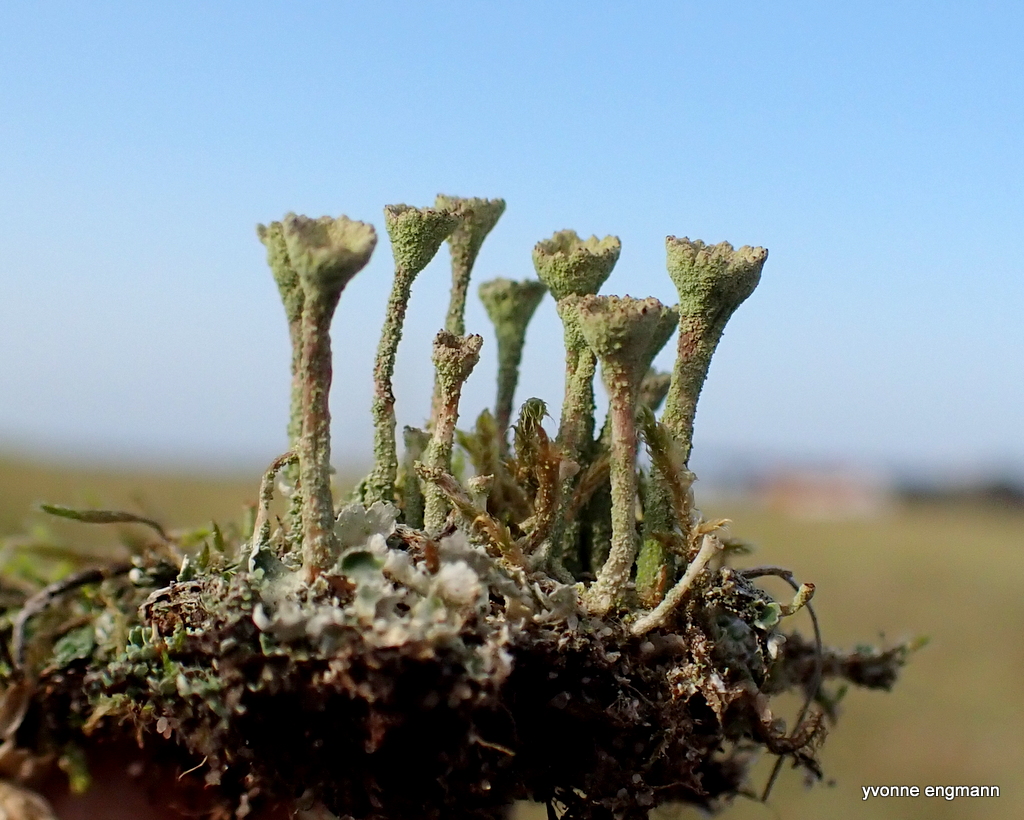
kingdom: Fungi
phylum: Ascomycota
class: Lecanoromycetes
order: Lecanorales
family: Cladoniaceae
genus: Cladonia
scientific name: Cladonia
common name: brungrøn bægerlav
